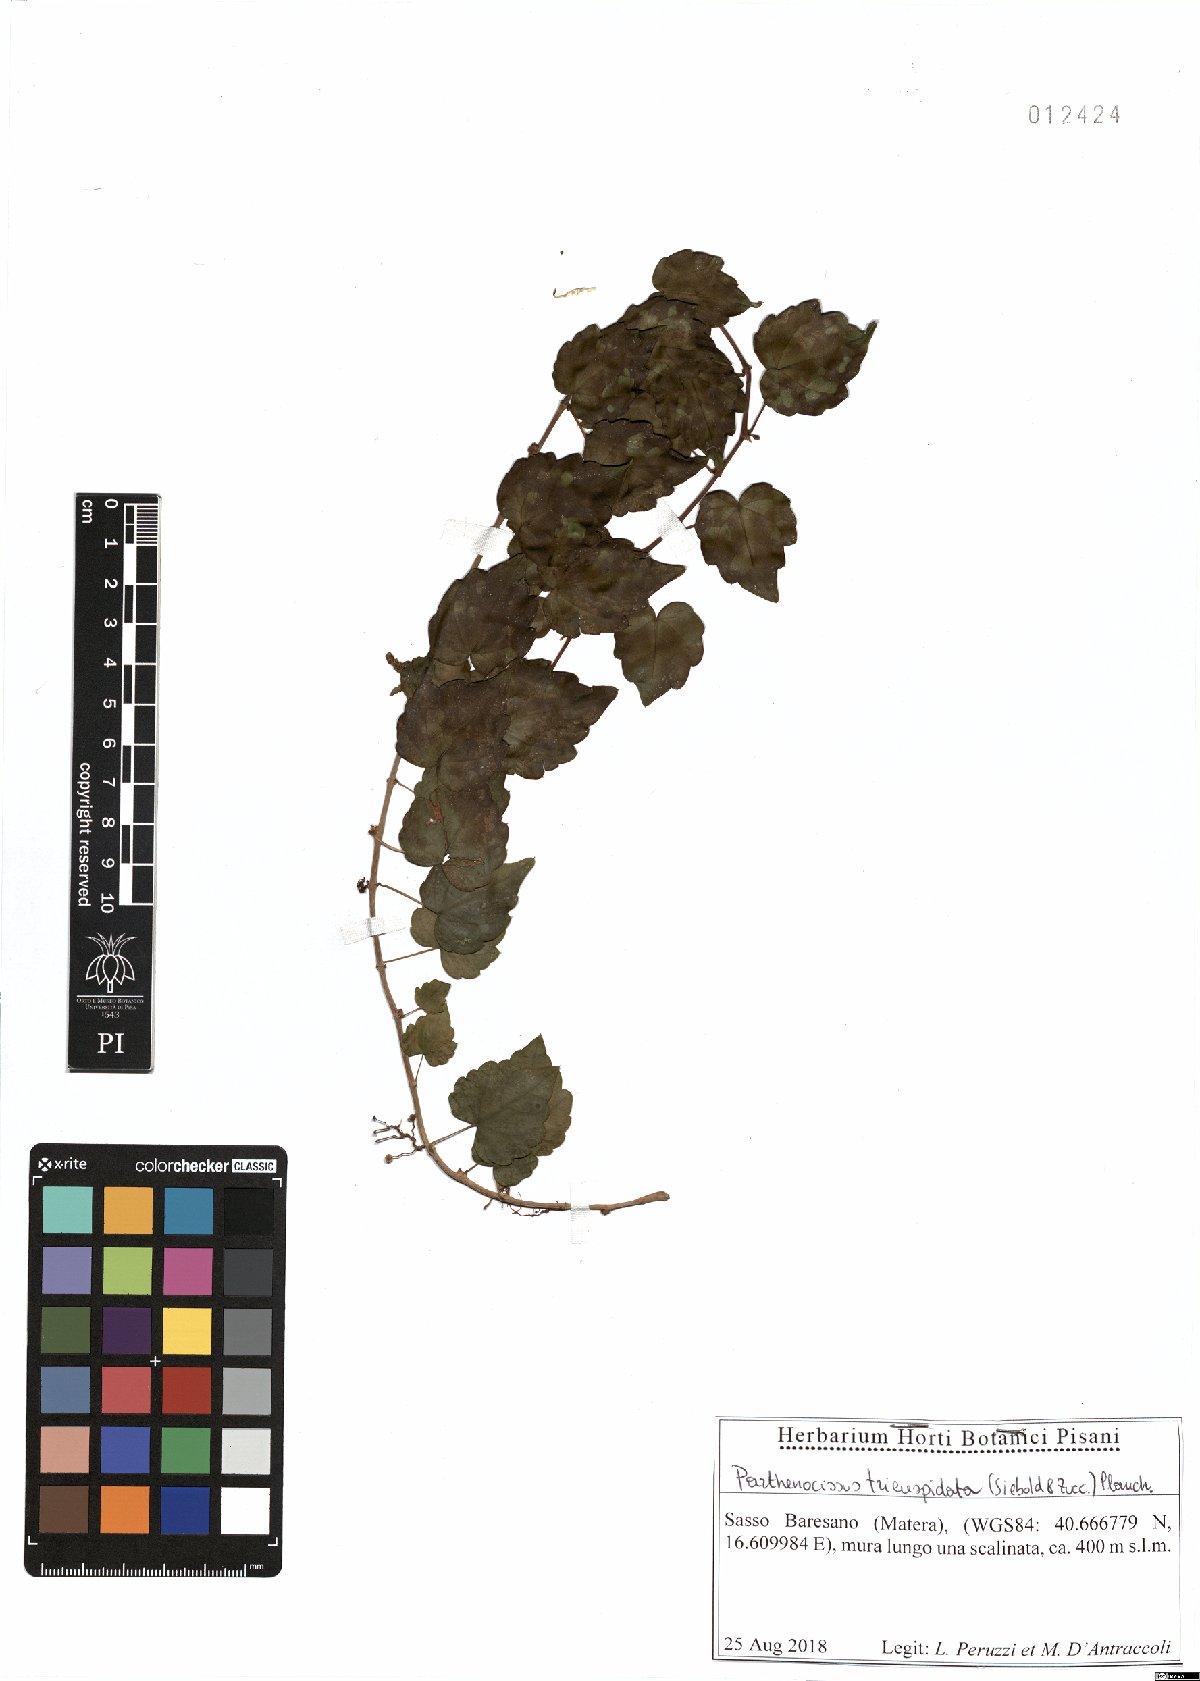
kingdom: Plantae
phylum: Tracheophyta
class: Magnoliopsida
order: Vitales
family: Vitaceae
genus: Parthenocissus
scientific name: Parthenocissus tricuspidata
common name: Boston ivy
